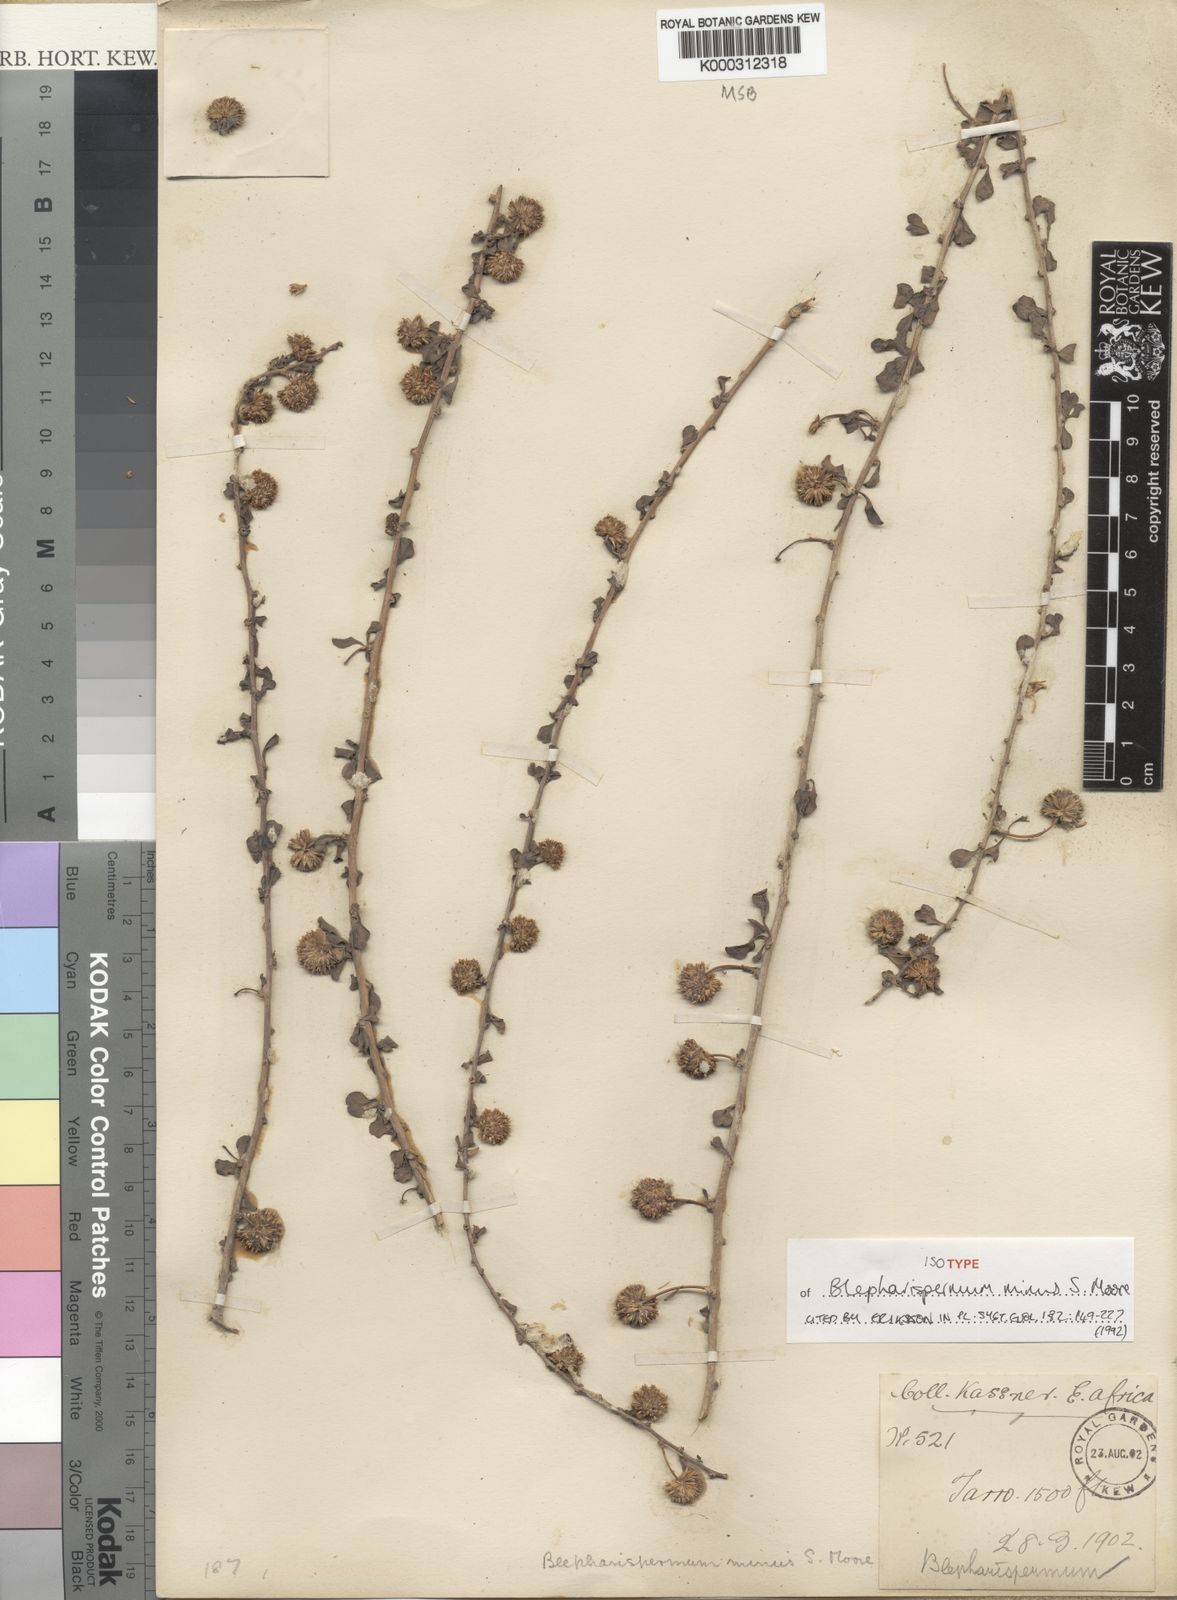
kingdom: Plantae
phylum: Tracheophyta
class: Magnoliopsida
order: Asterales
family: Asteraceae
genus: Blepharispermum
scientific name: Blepharispermum minus
